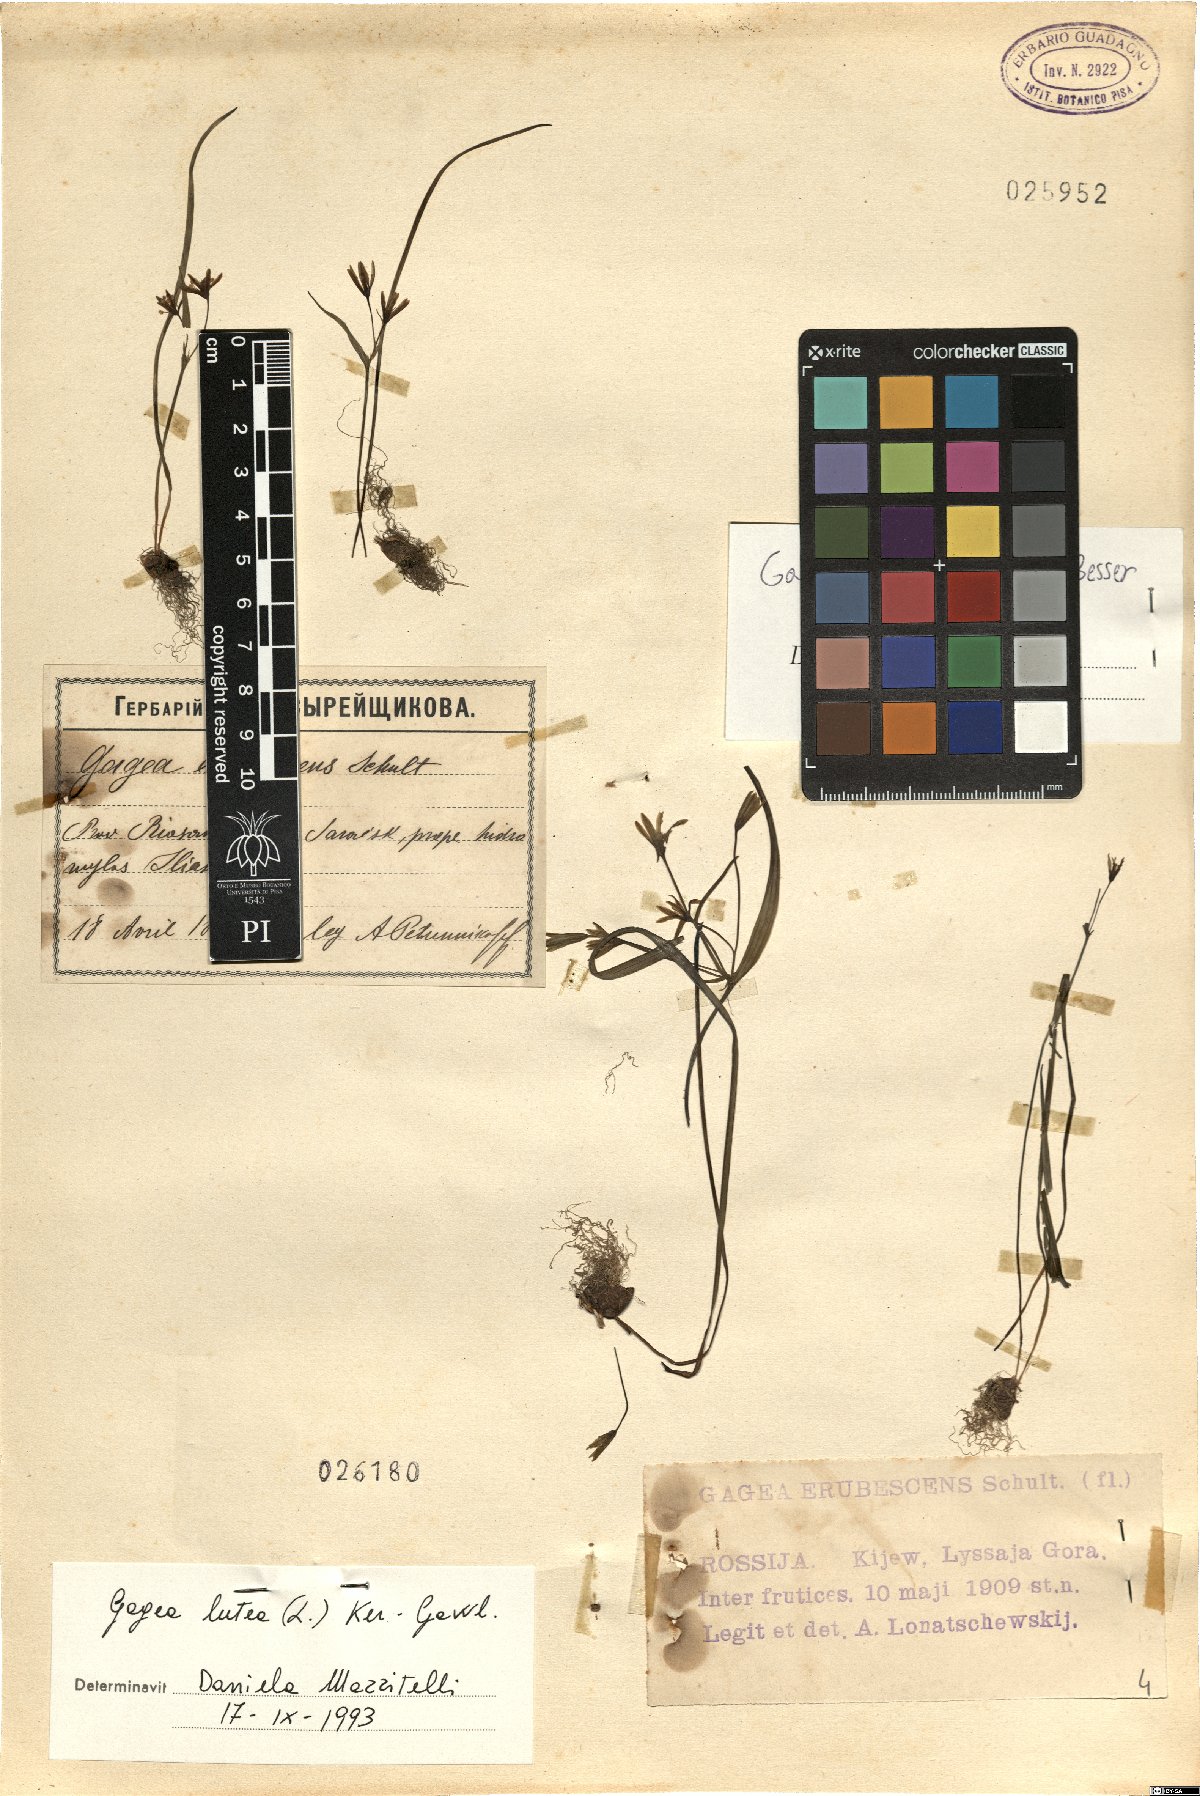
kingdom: Plantae
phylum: Tracheophyta
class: Liliopsida
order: Liliales
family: Liliaceae
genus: Gagea
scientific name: Gagea lutea
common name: Yellow star-of-bethlehem
